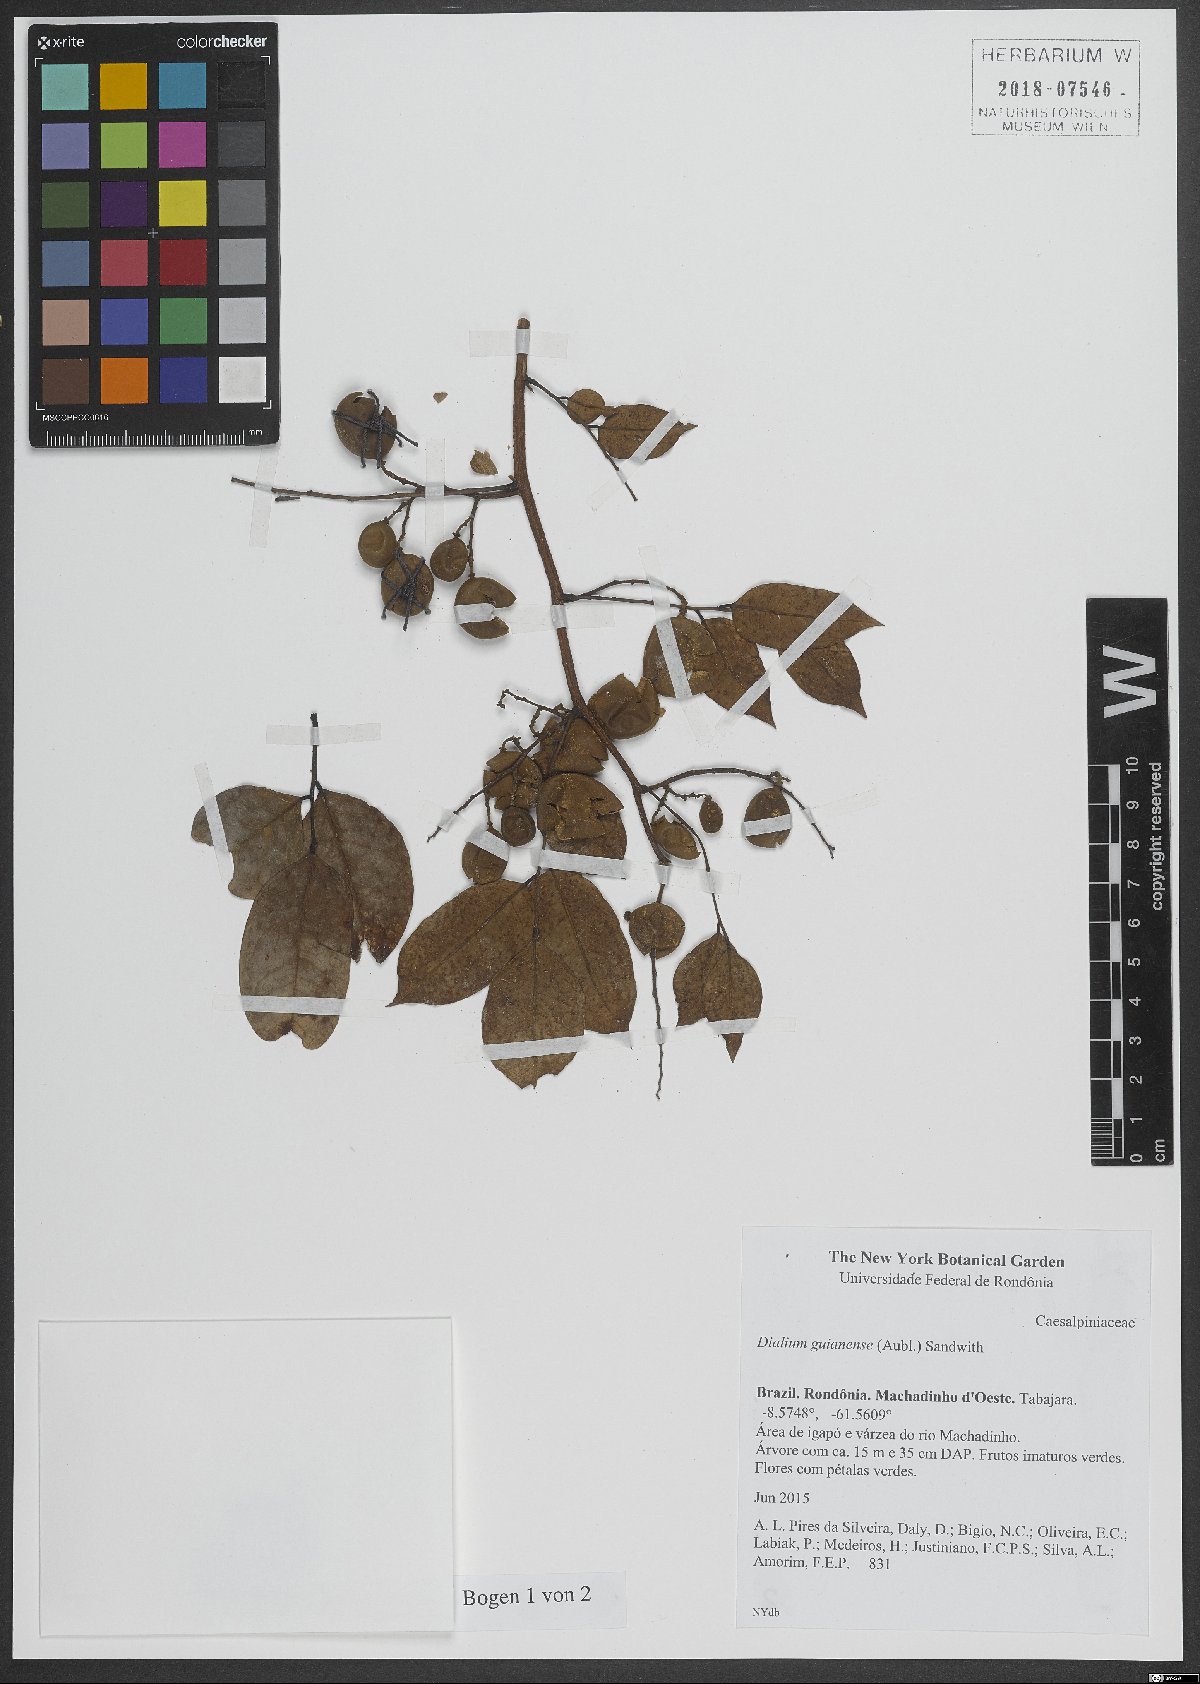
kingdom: Plantae
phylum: Tracheophyta
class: Magnoliopsida
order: Fabales
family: Fabaceae
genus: Dialium
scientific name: Dialium guianense
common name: Ironwood
